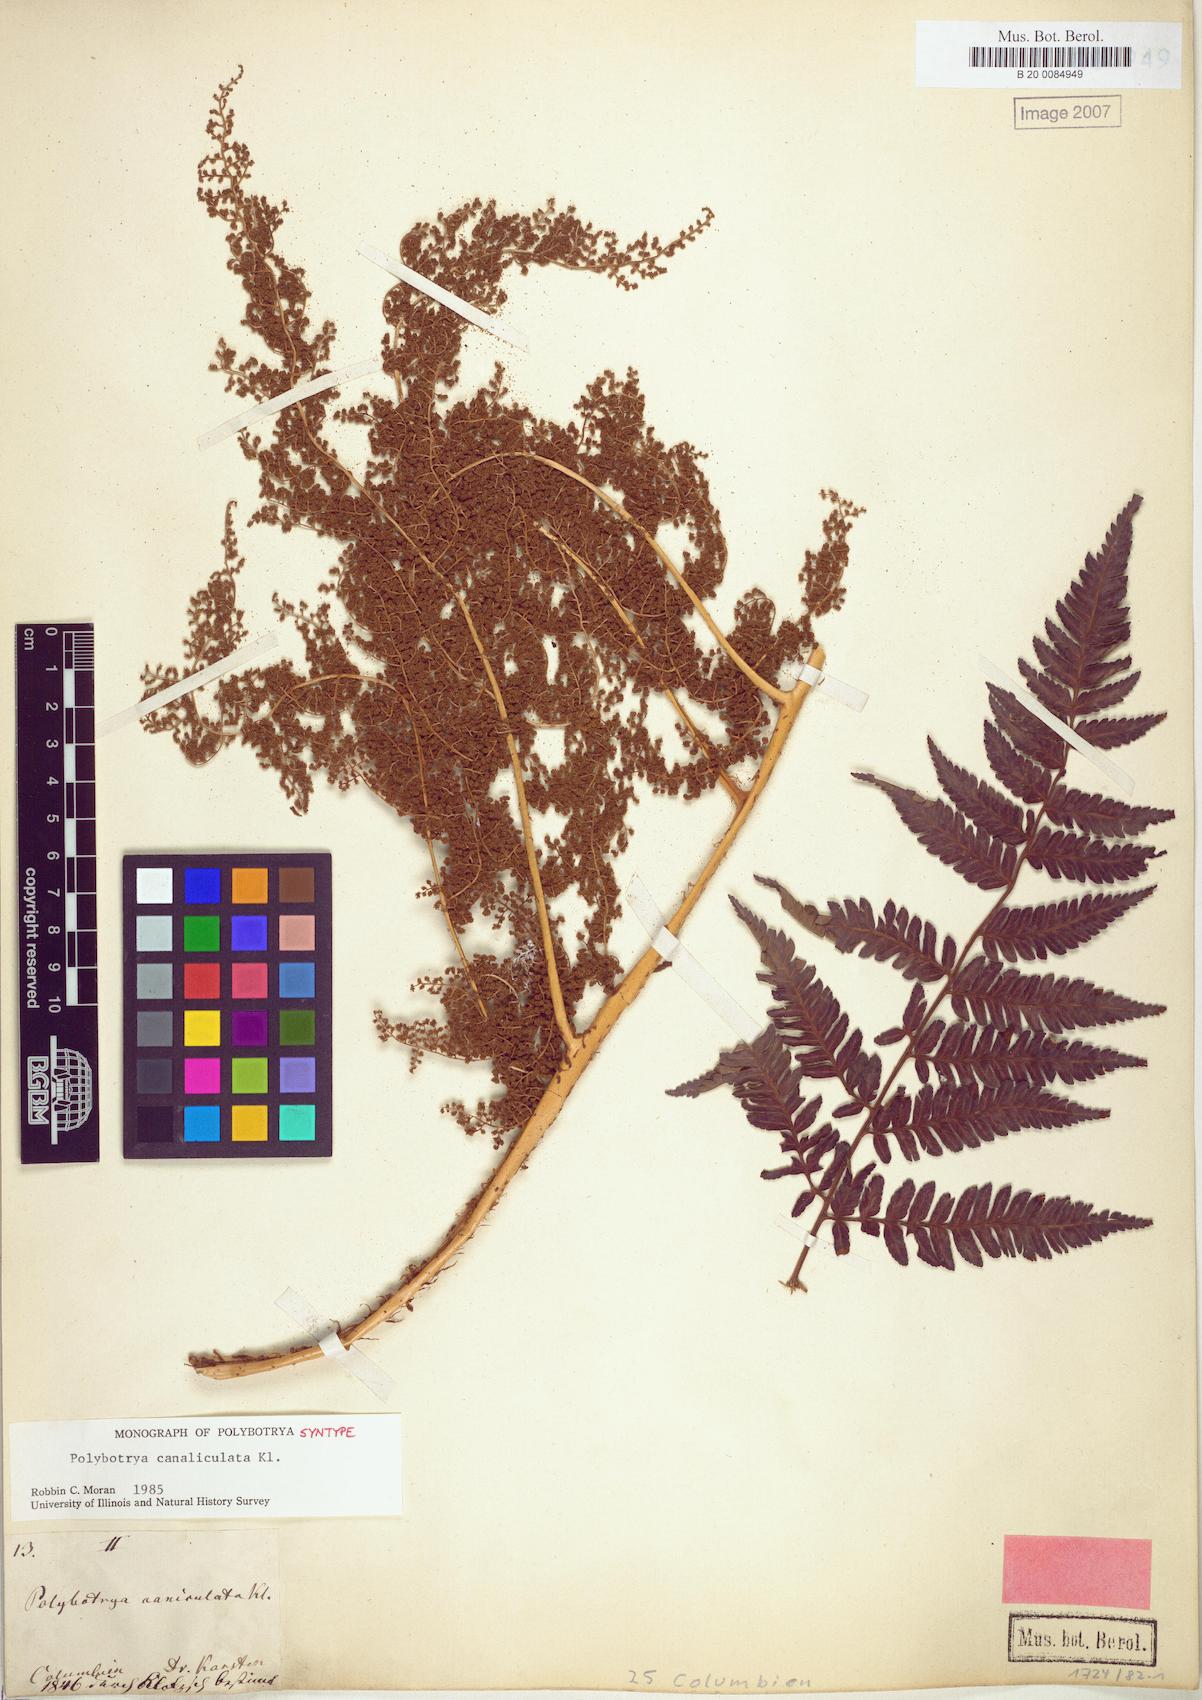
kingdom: Plantae
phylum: Tracheophyta
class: Polypodiopsida
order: Polypodiales
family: Dryopteridaceae
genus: Polybotrya
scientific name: Polybotrya canaliculata
